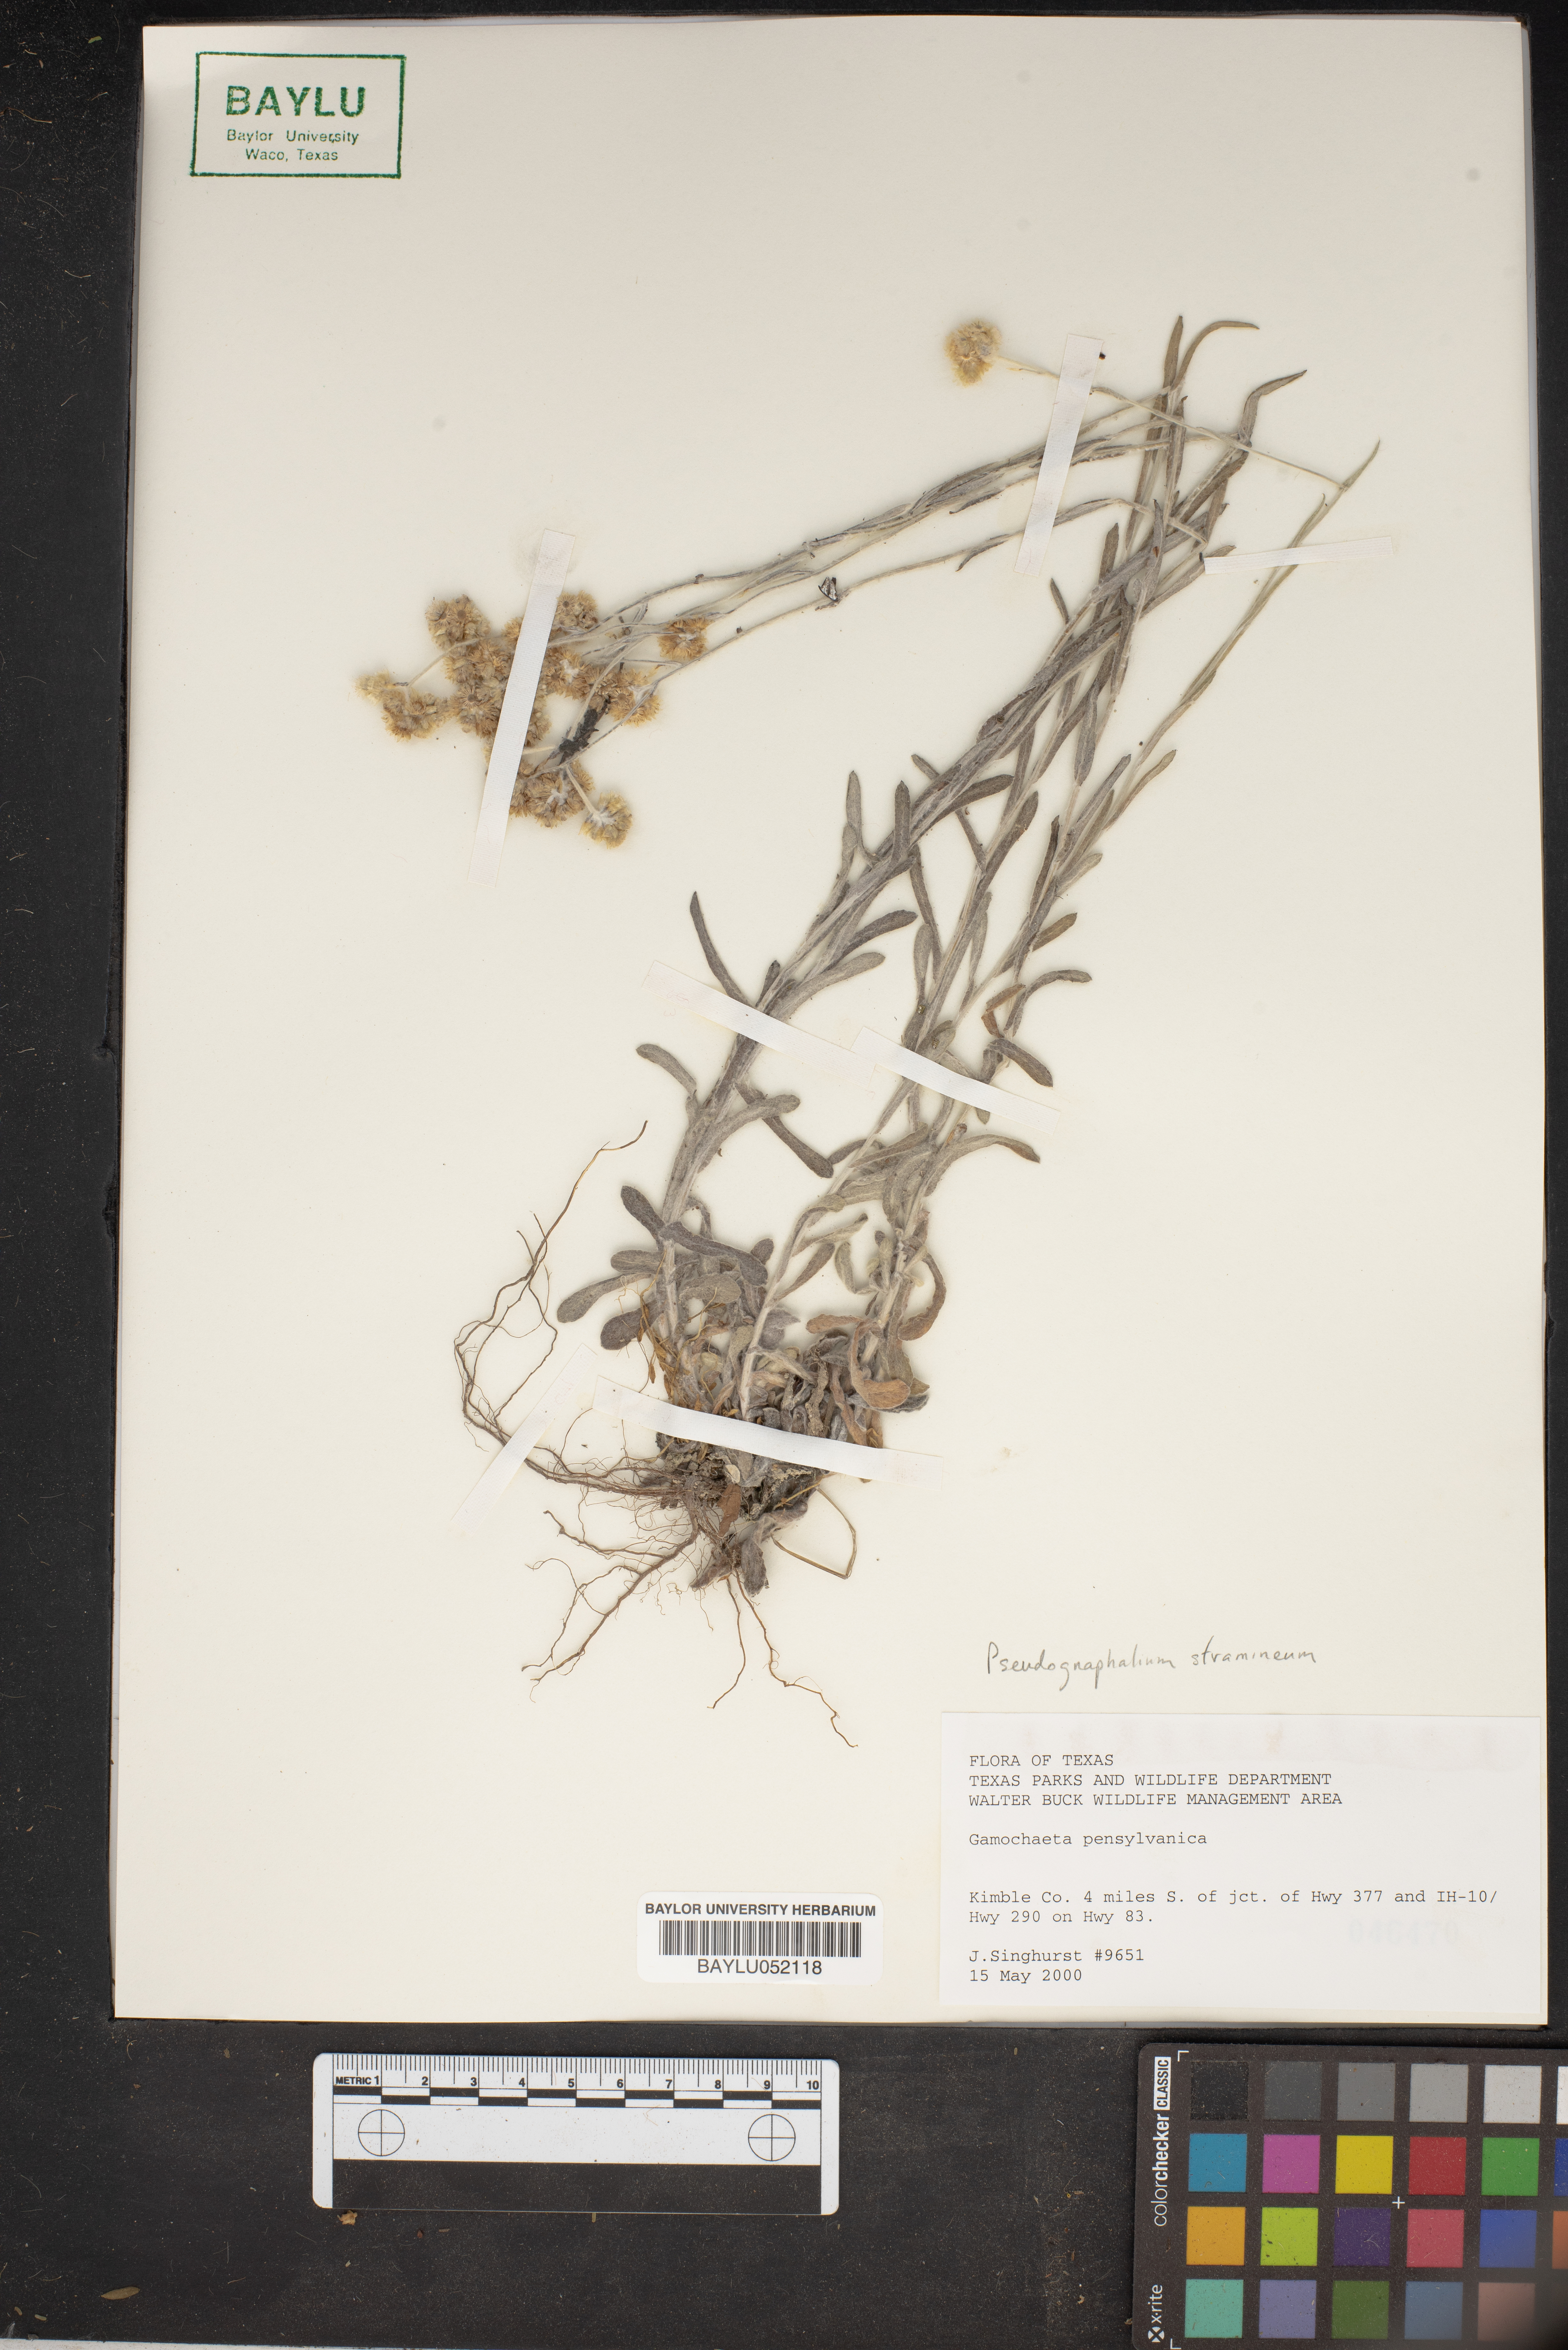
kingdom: Plantae
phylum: Tracheophyta
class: Magnoliopsida
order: Asterales
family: Asteraceae
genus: Gamochaeta
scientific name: Gamochaeta pensylvanica
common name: Pennsylvania everlasting
